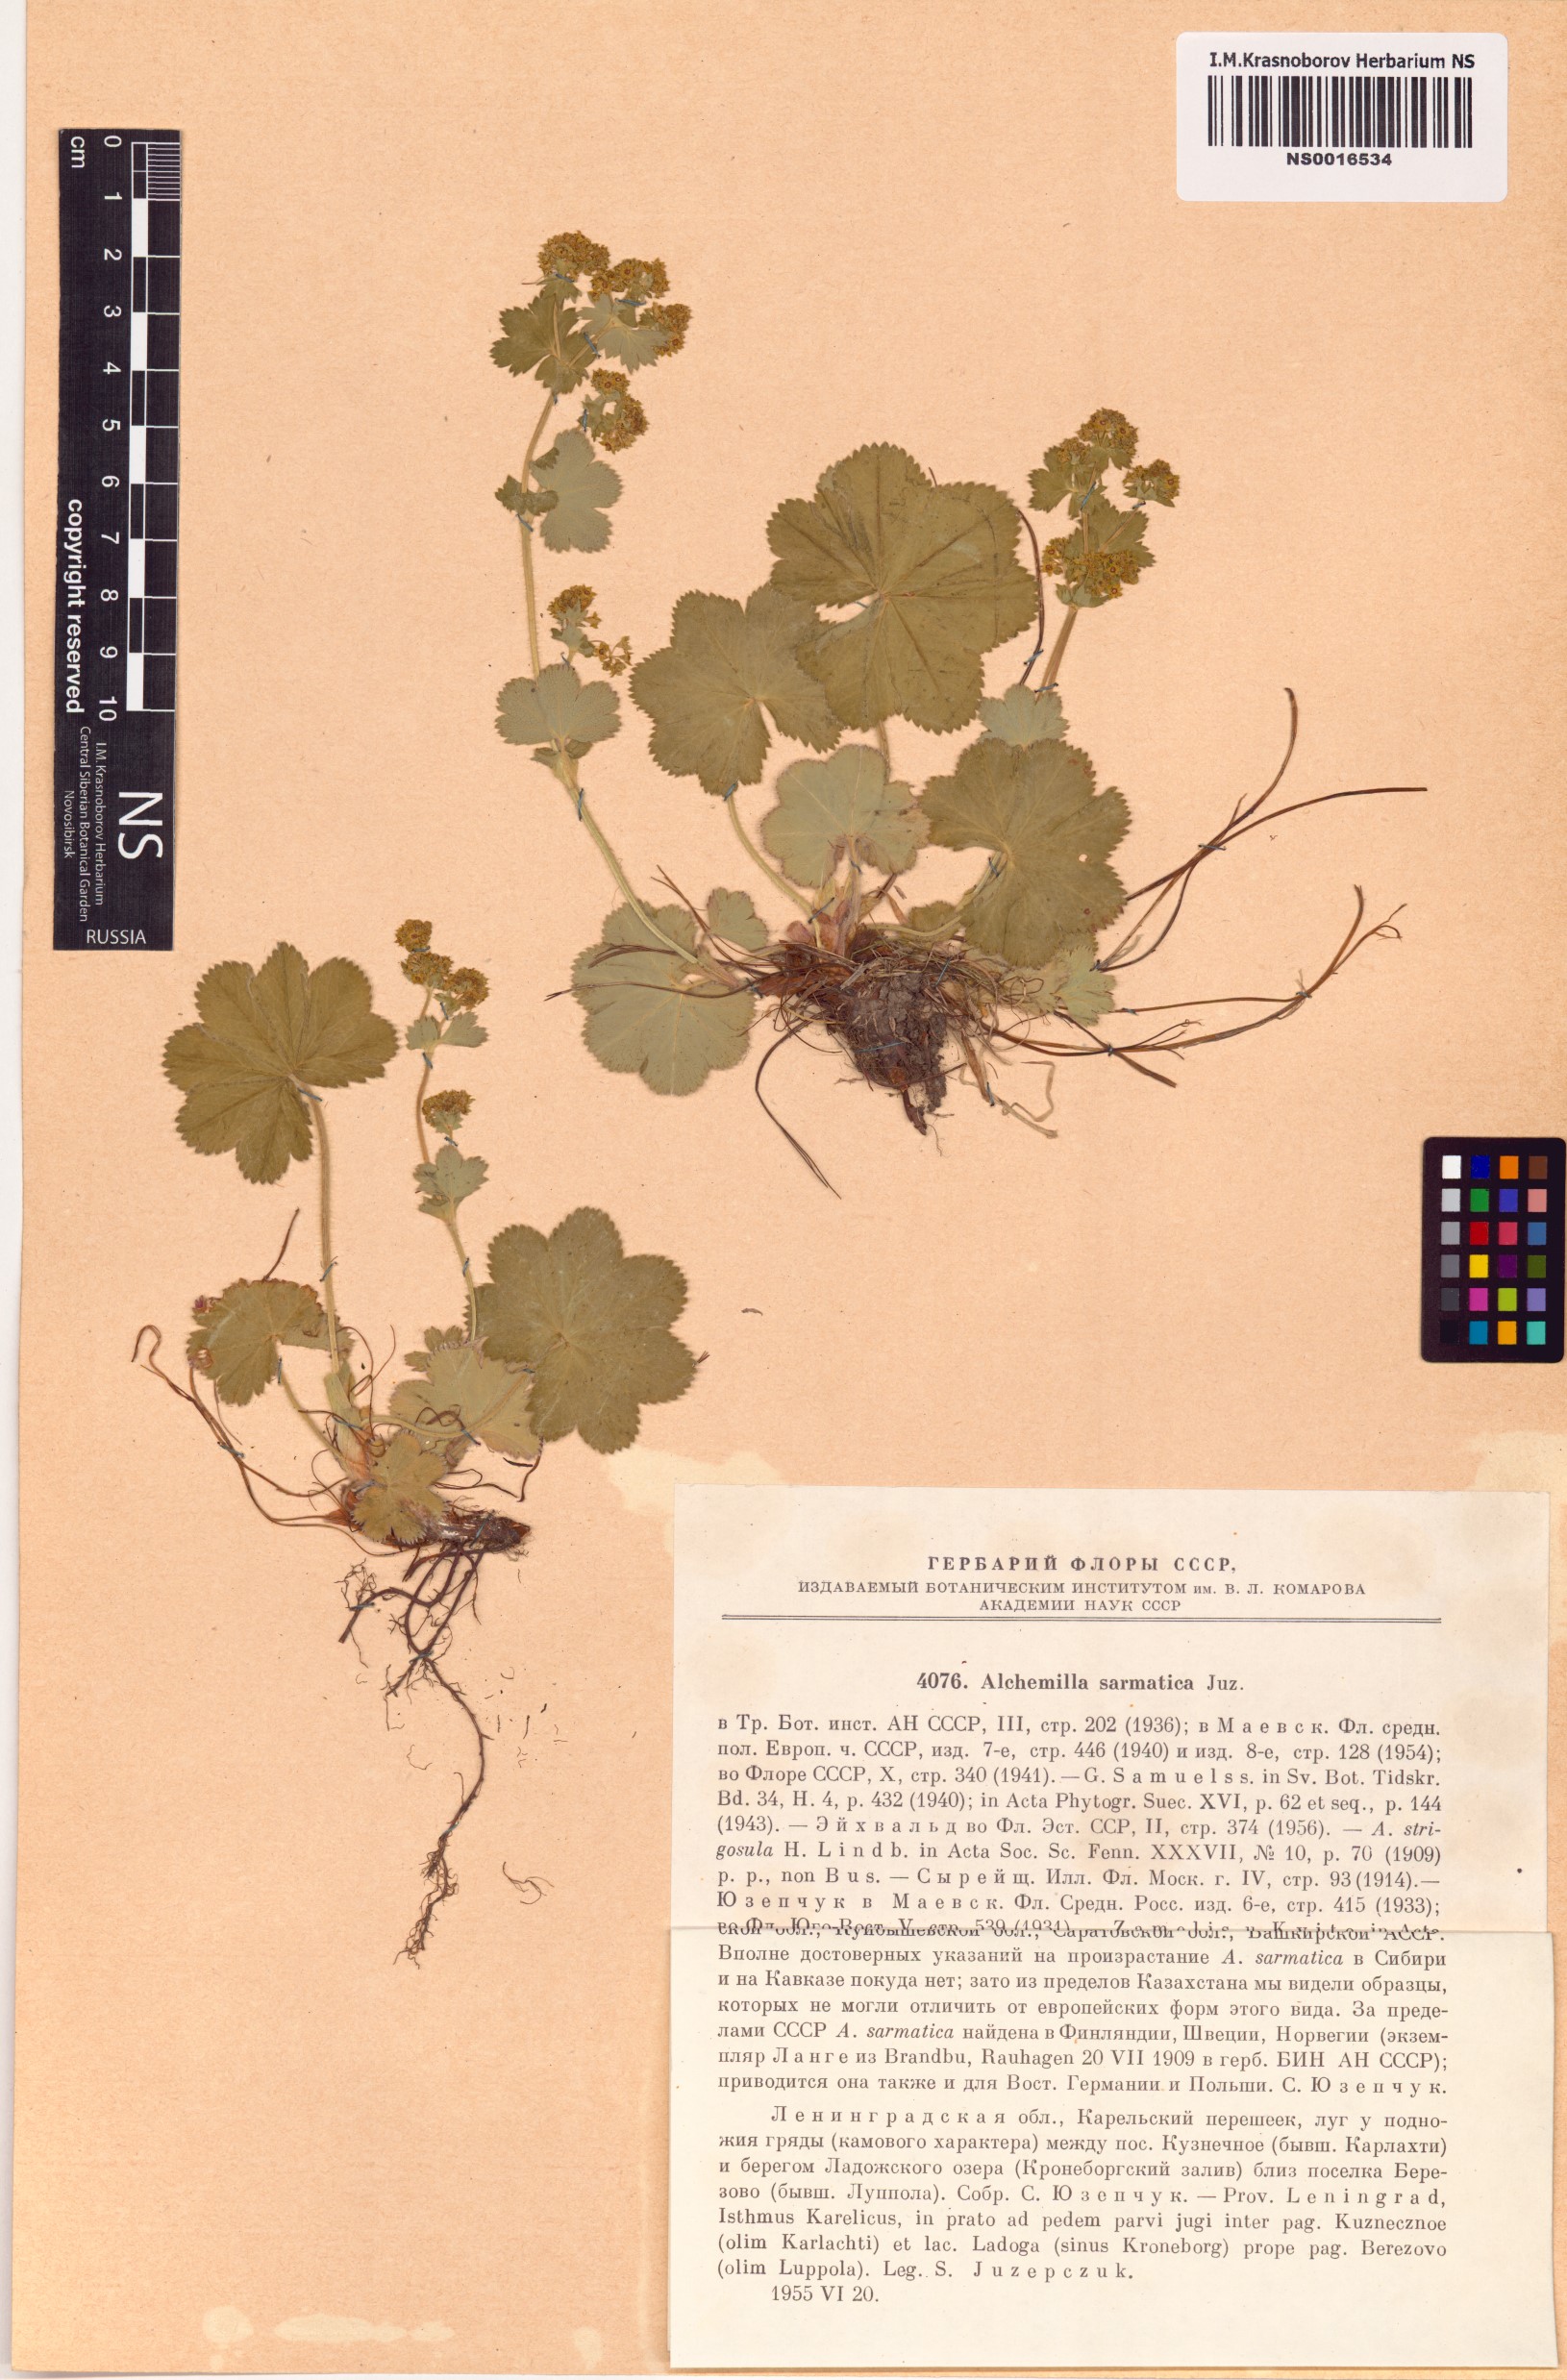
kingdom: Plantae
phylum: Tracheophyta
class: Magnoliopsida
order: Rosales
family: Rosaceae
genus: Alchemilla
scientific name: Alchemilla sarmatica
